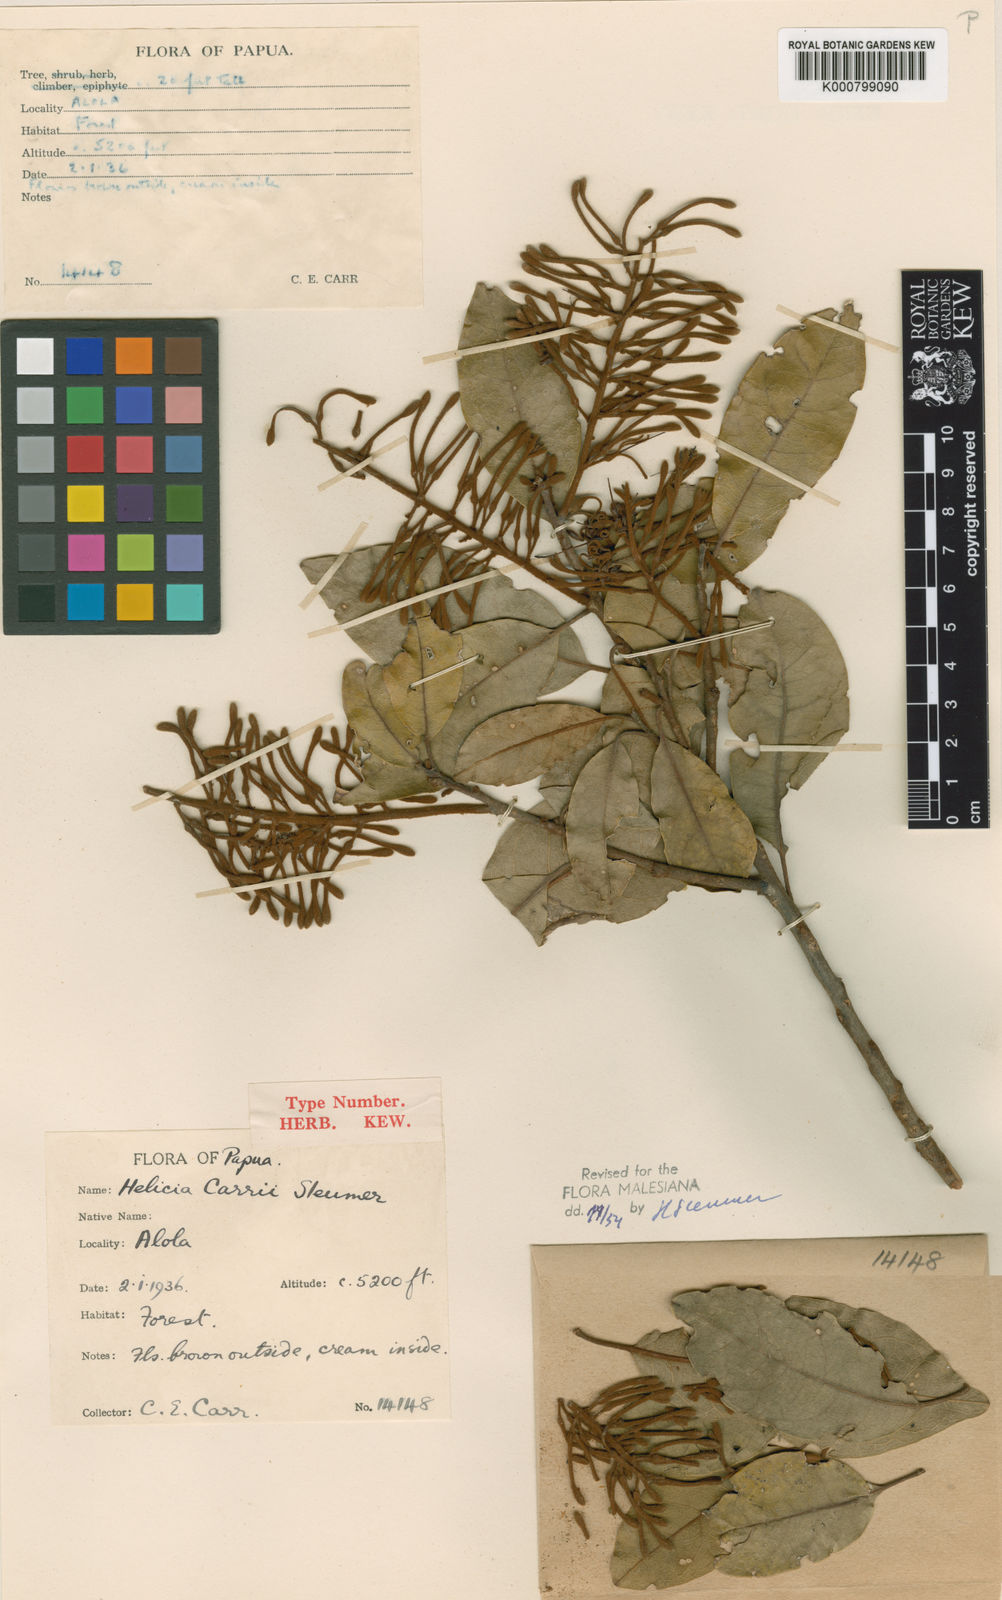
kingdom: Plantae
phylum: Tracheophyta
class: Magnoliopsida
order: Proteales
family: Proteaceae
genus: Helicia
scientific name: Helicia carrii
